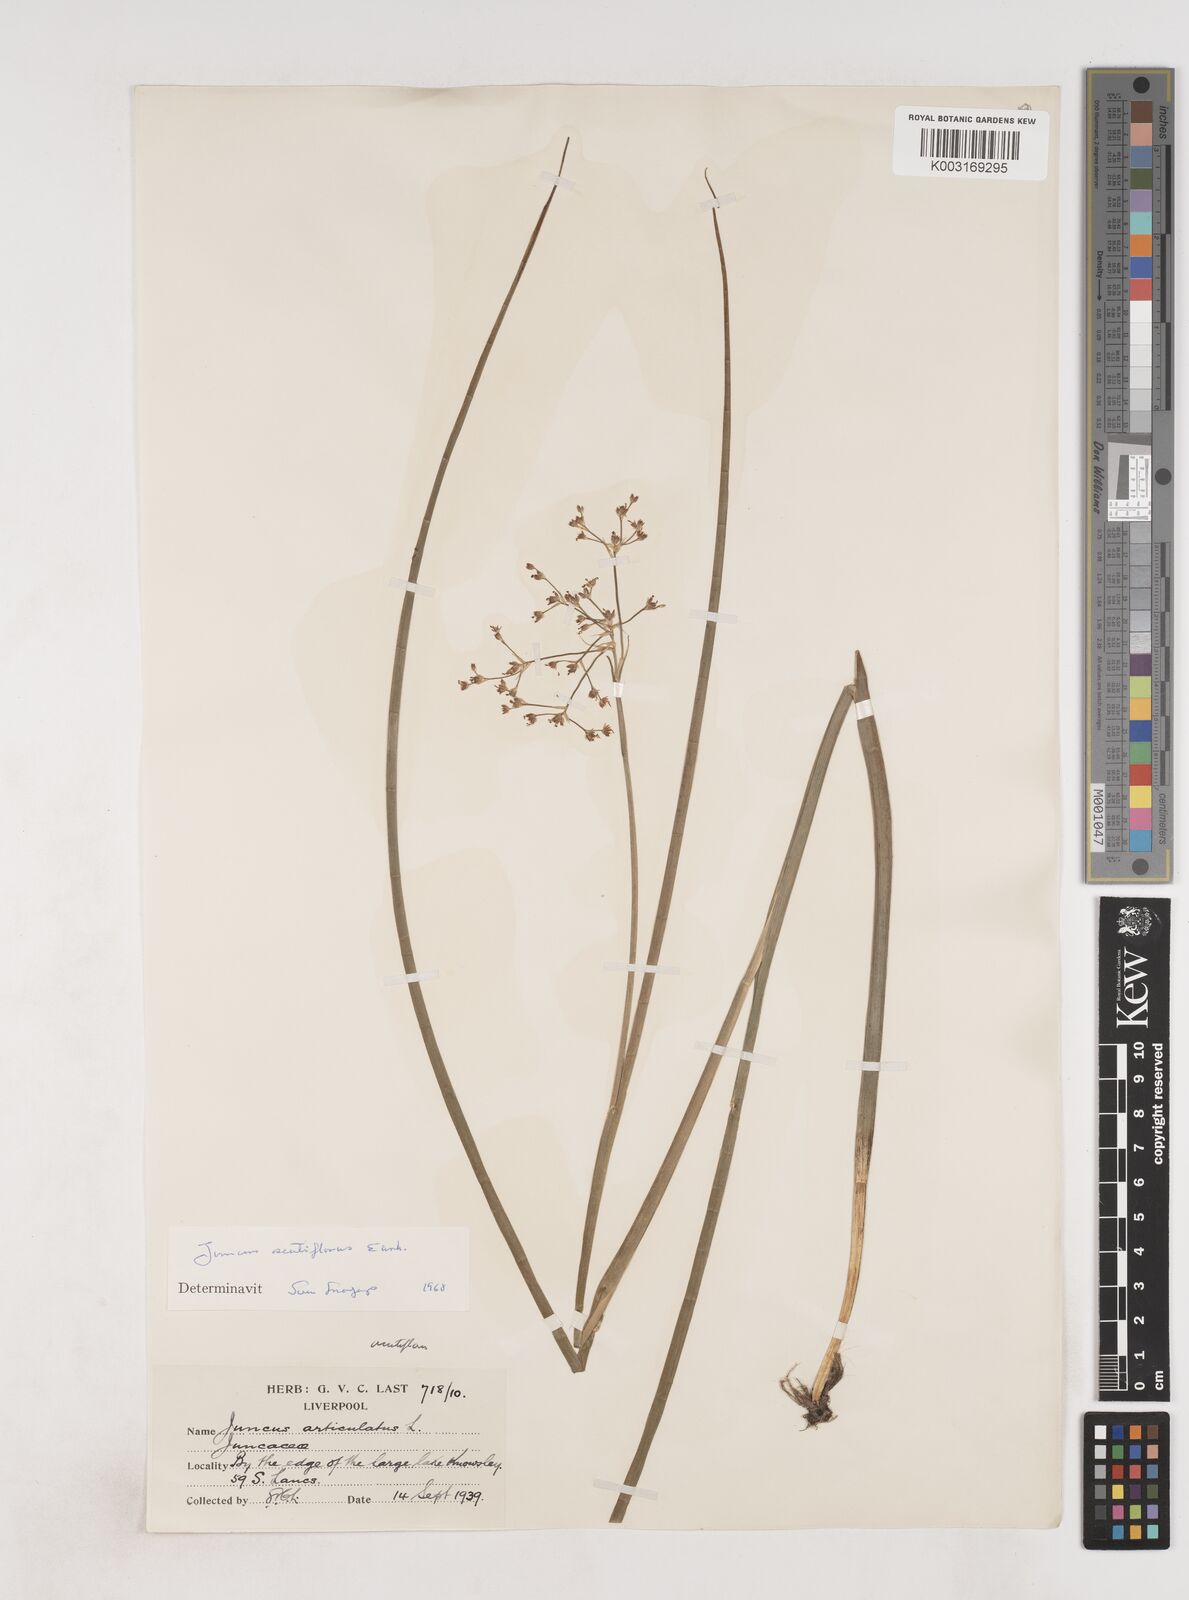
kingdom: Plantae
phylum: Tracheophyta
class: Liliopsida
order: Poales
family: Juncaceae
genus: Juncus
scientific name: Juncus acutiflorus
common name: Sharp-flowered rush
